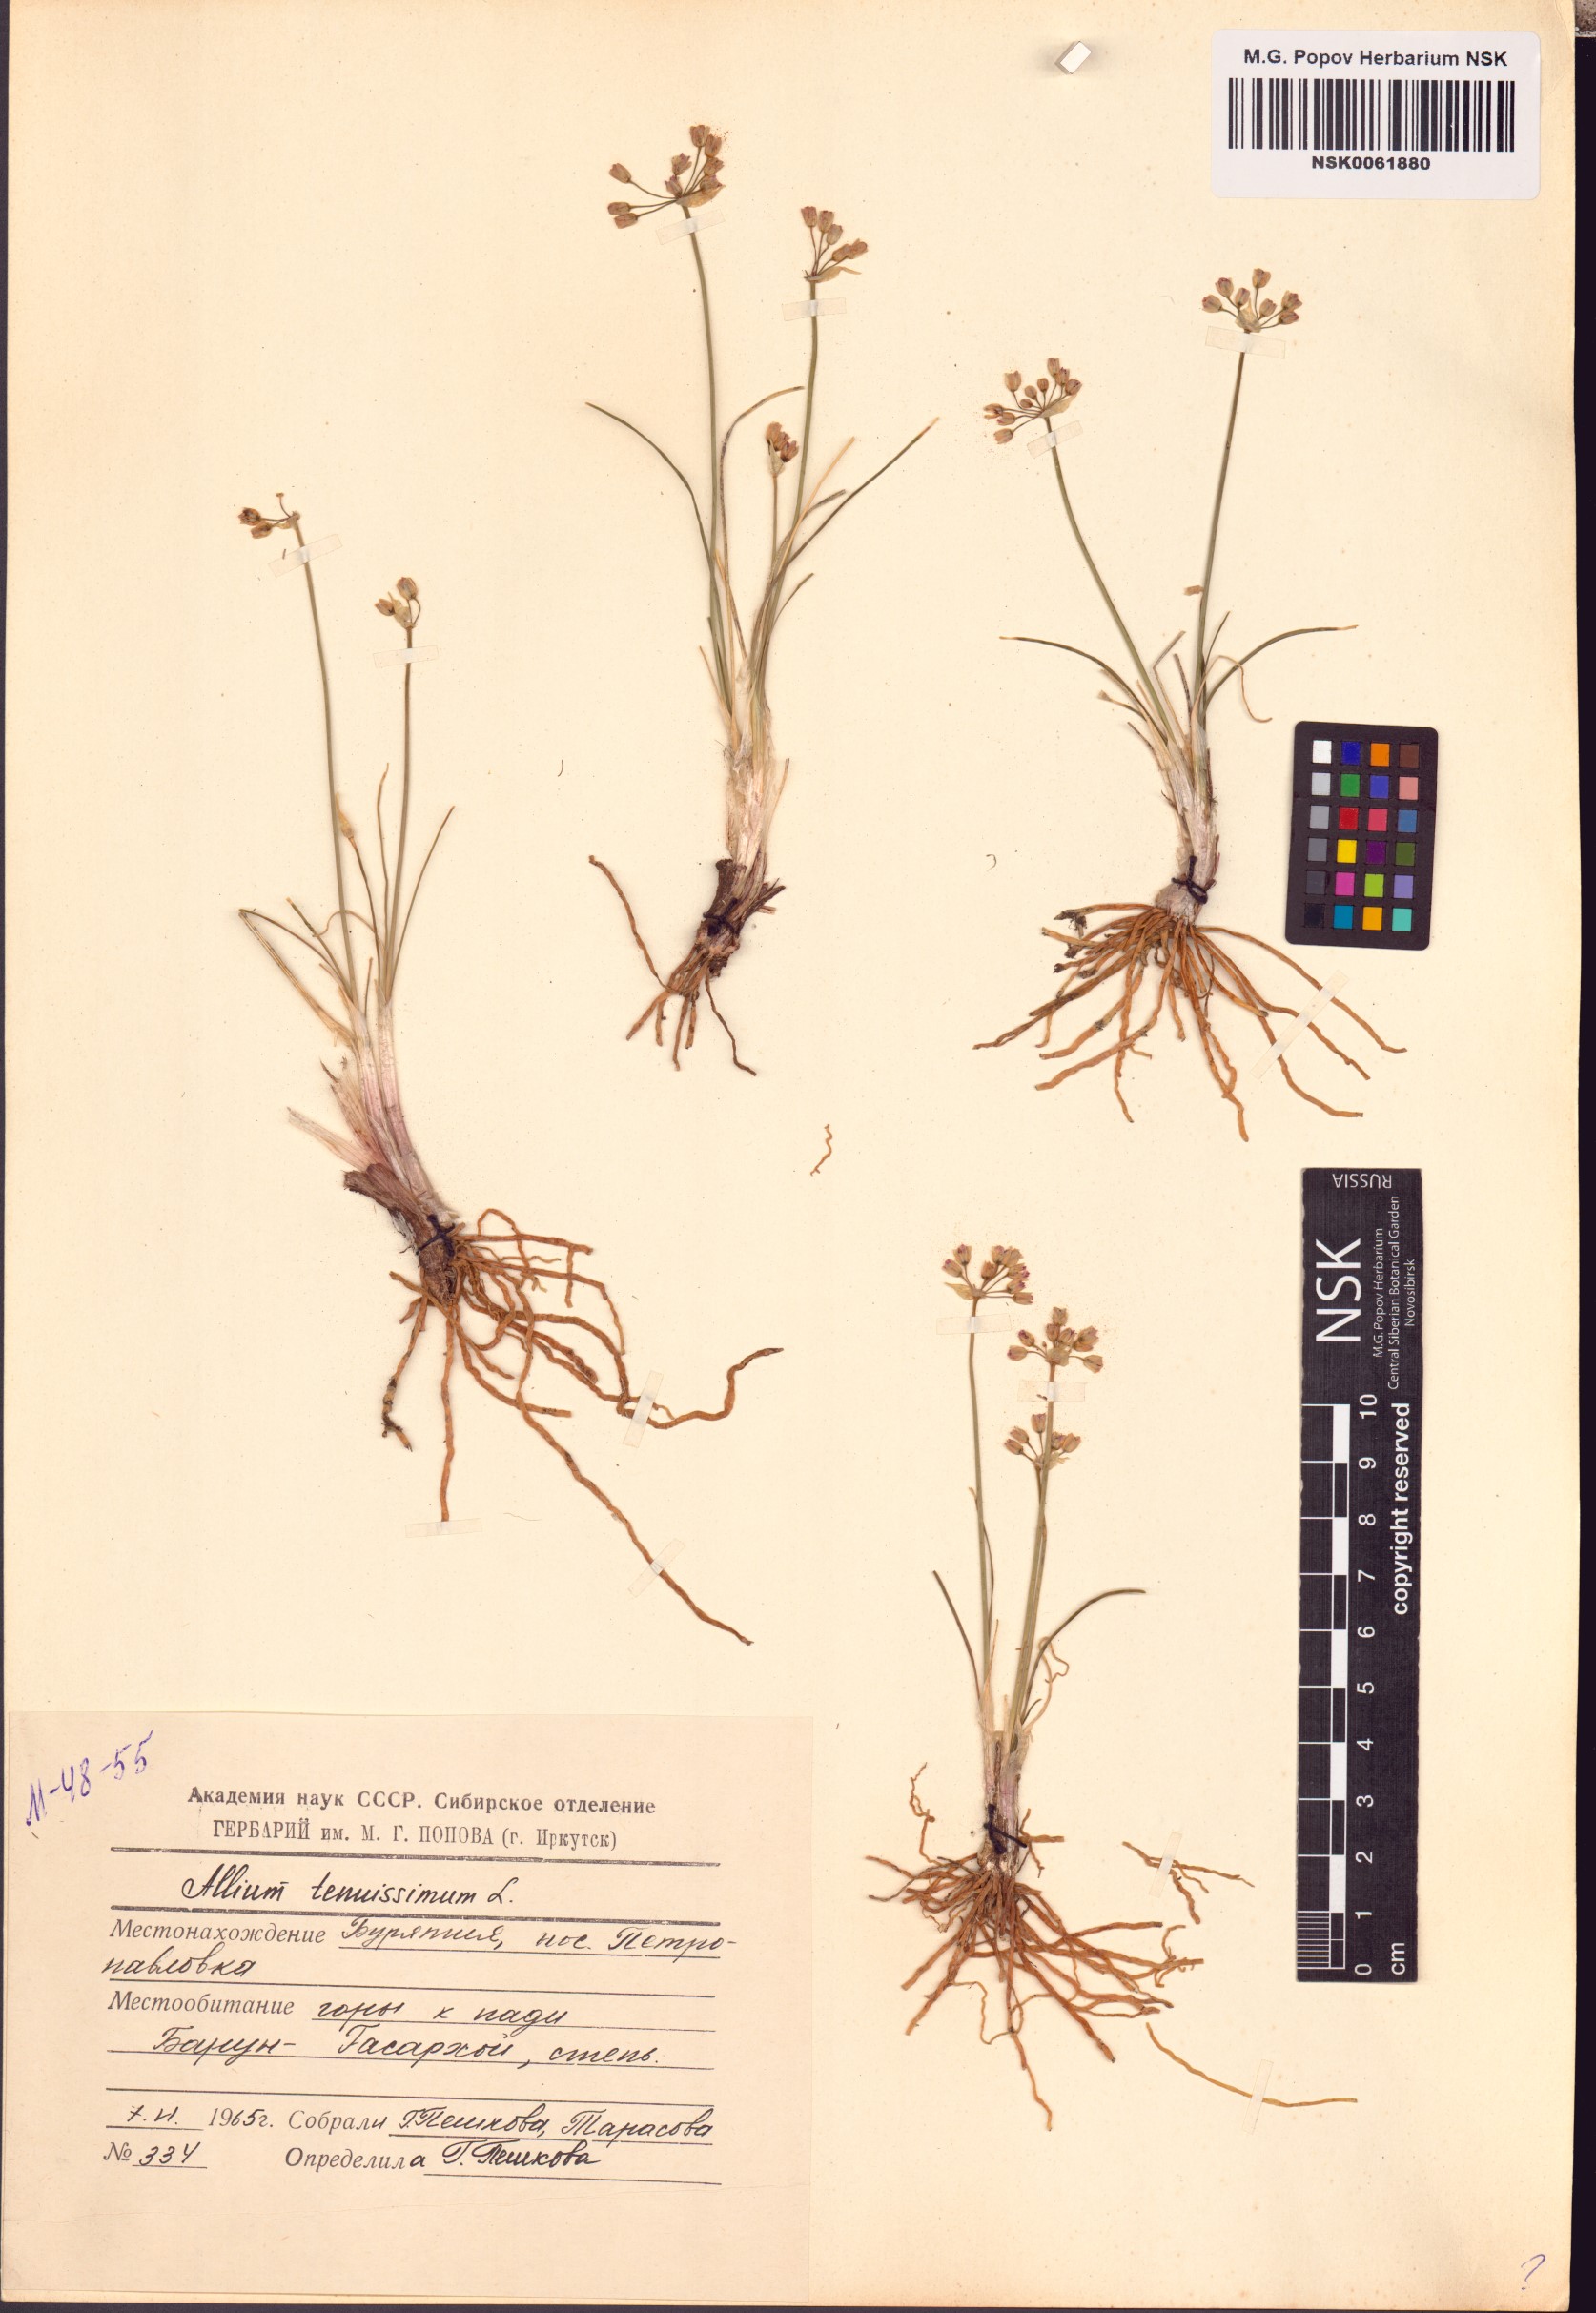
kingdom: Plantae
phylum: Tracheophyta
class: Liliopsida
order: Asparagales
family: Amaryllidaceae
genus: Allium
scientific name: Allium tenuissimum
